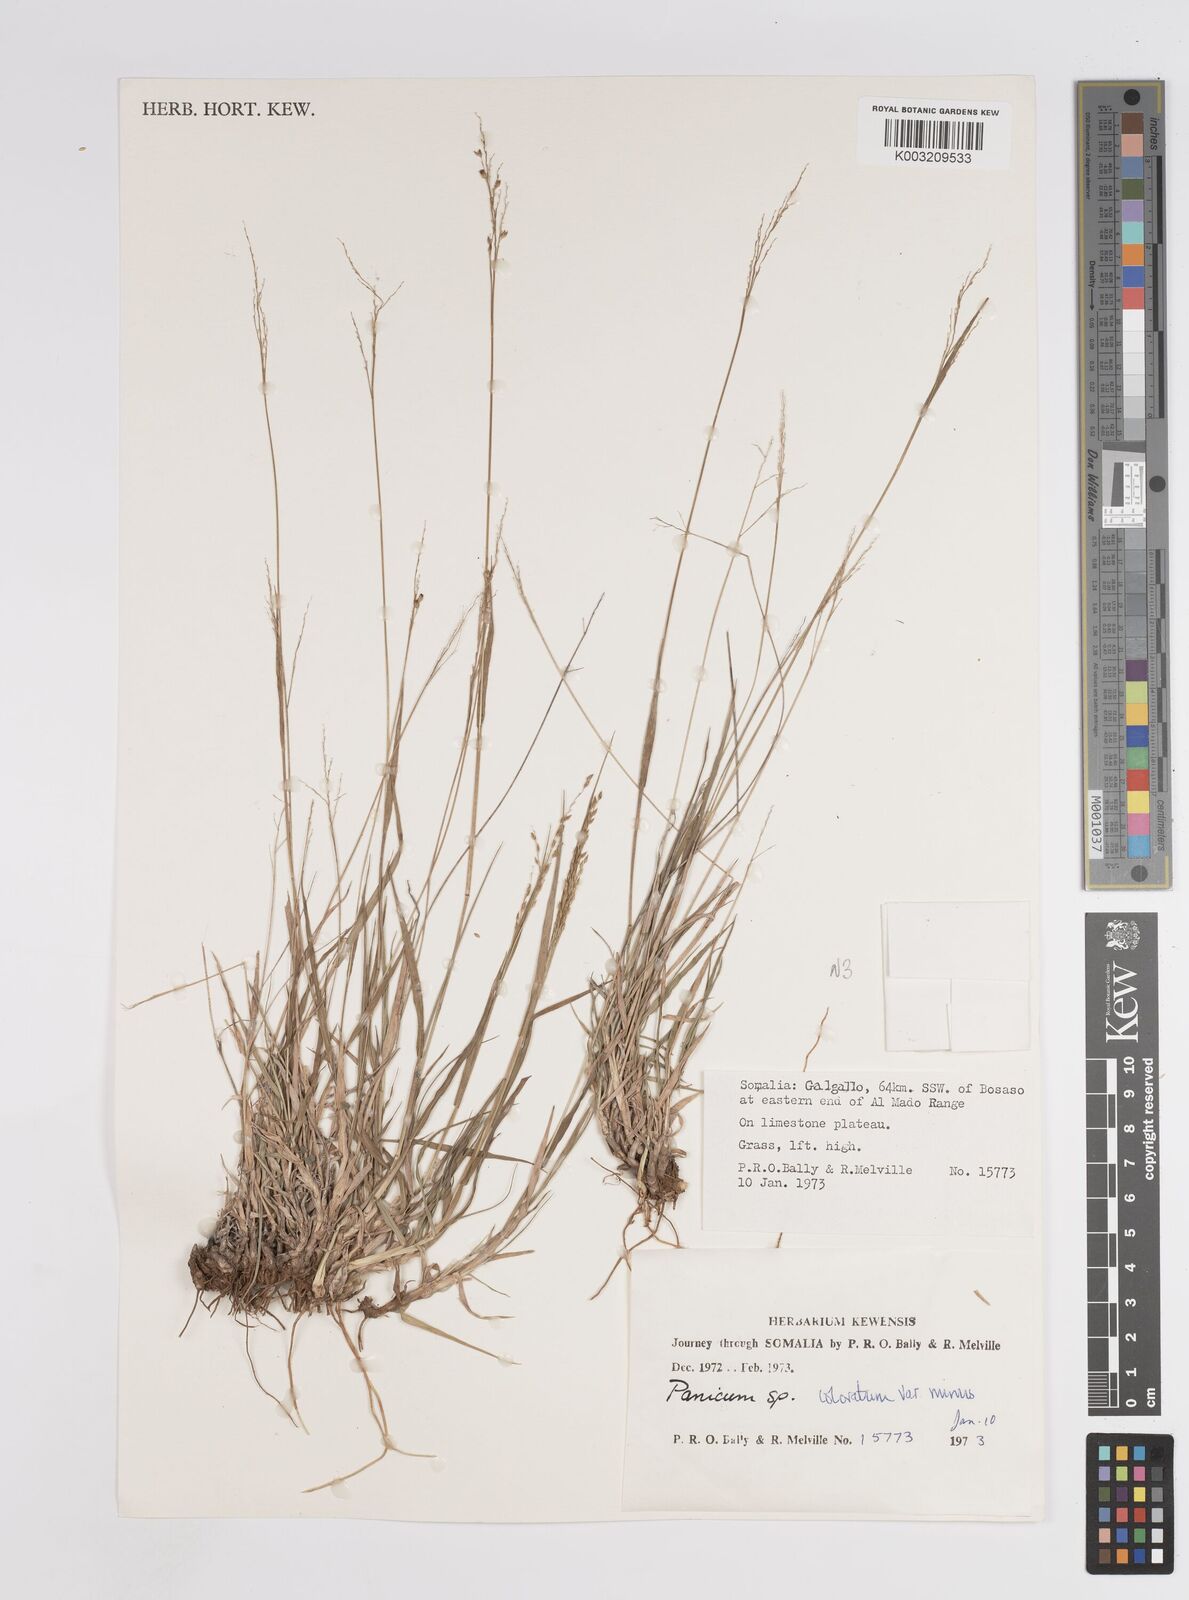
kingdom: Plantae
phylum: Tracheophyta
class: Liliopsida
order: Poales
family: Poaceae
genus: Panicum
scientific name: Panicum coloratum
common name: Kleingrass
